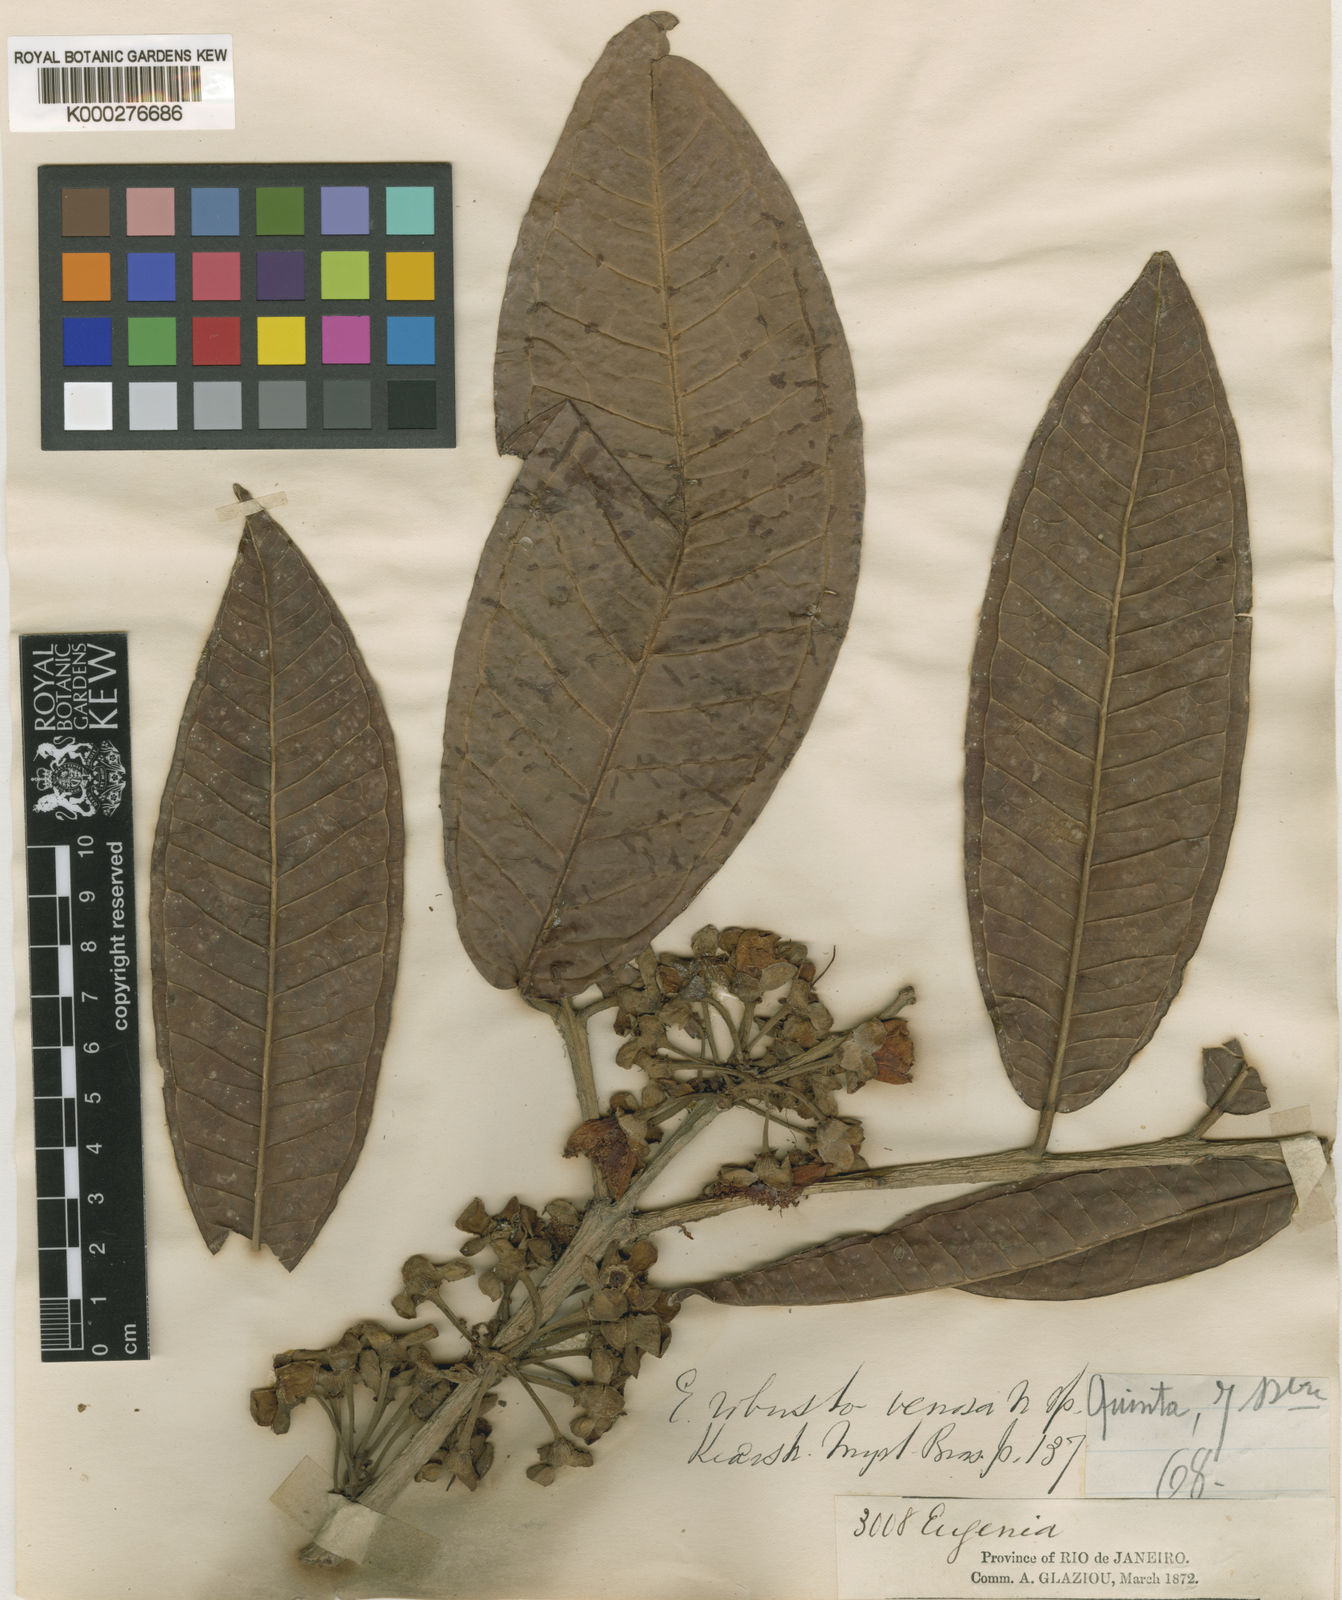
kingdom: Plantae
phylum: Tracheophyta
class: Magnoliopsida
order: Myrtales
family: Myrtaceae
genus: Eugenia
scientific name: Eugenia umbrosa
